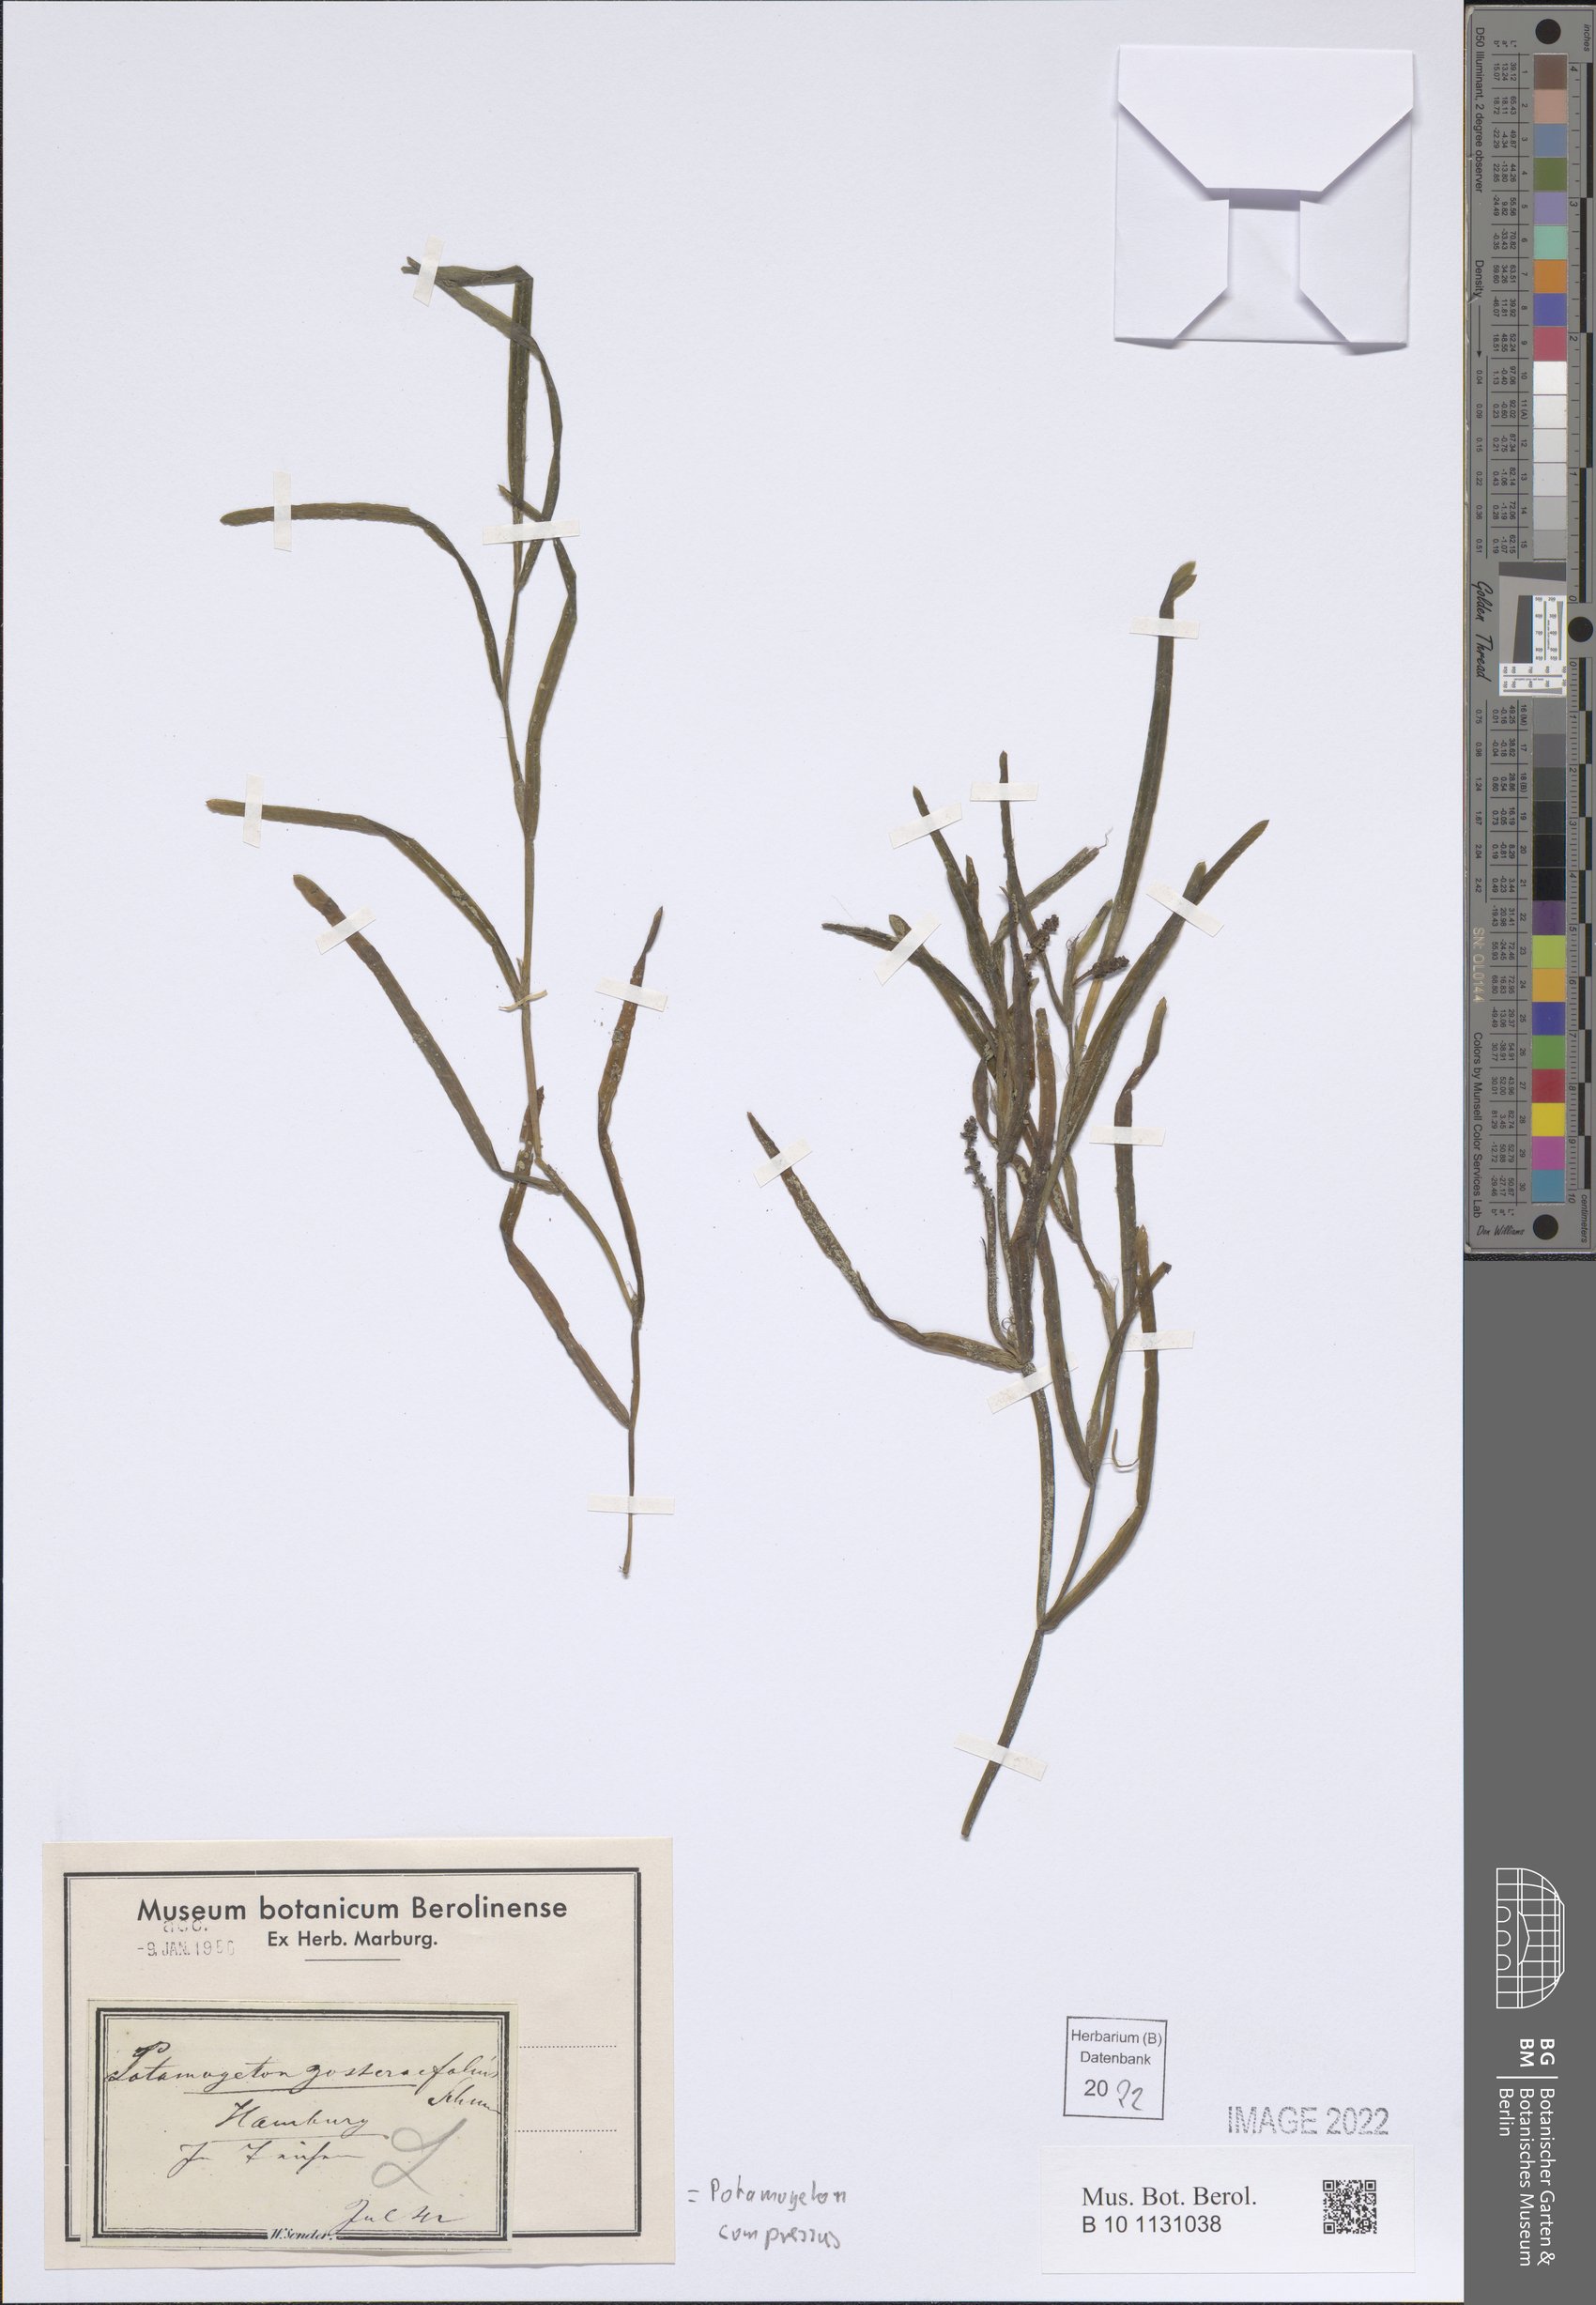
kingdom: Plantae
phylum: Tracheophyta
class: Liliopsida
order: Alismatales
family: Potamogetonaceae
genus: Potamogeton
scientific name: Potamogeton compressus
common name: Grass-wrack pondweed
